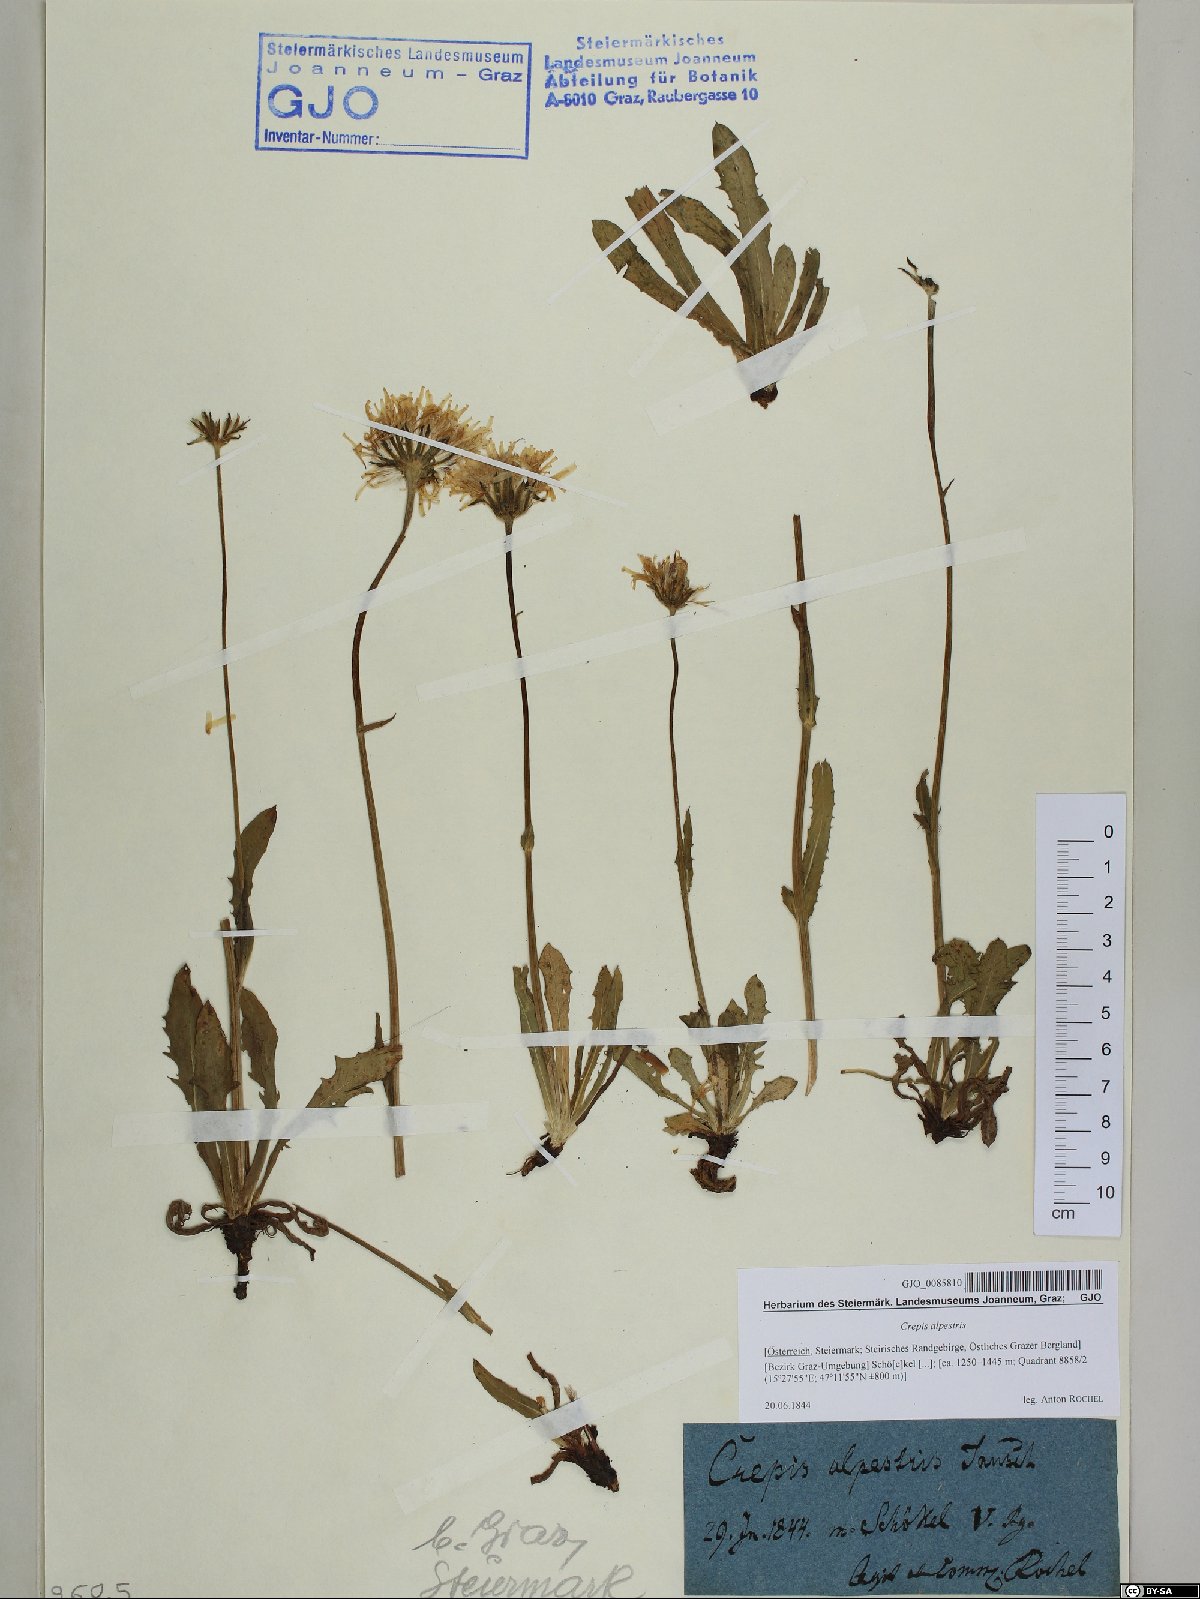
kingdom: Plantae
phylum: Tracheophyta
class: Magnoliopsida
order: Asterales
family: Asteraceae
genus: Crepis
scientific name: Crepis alpestris
